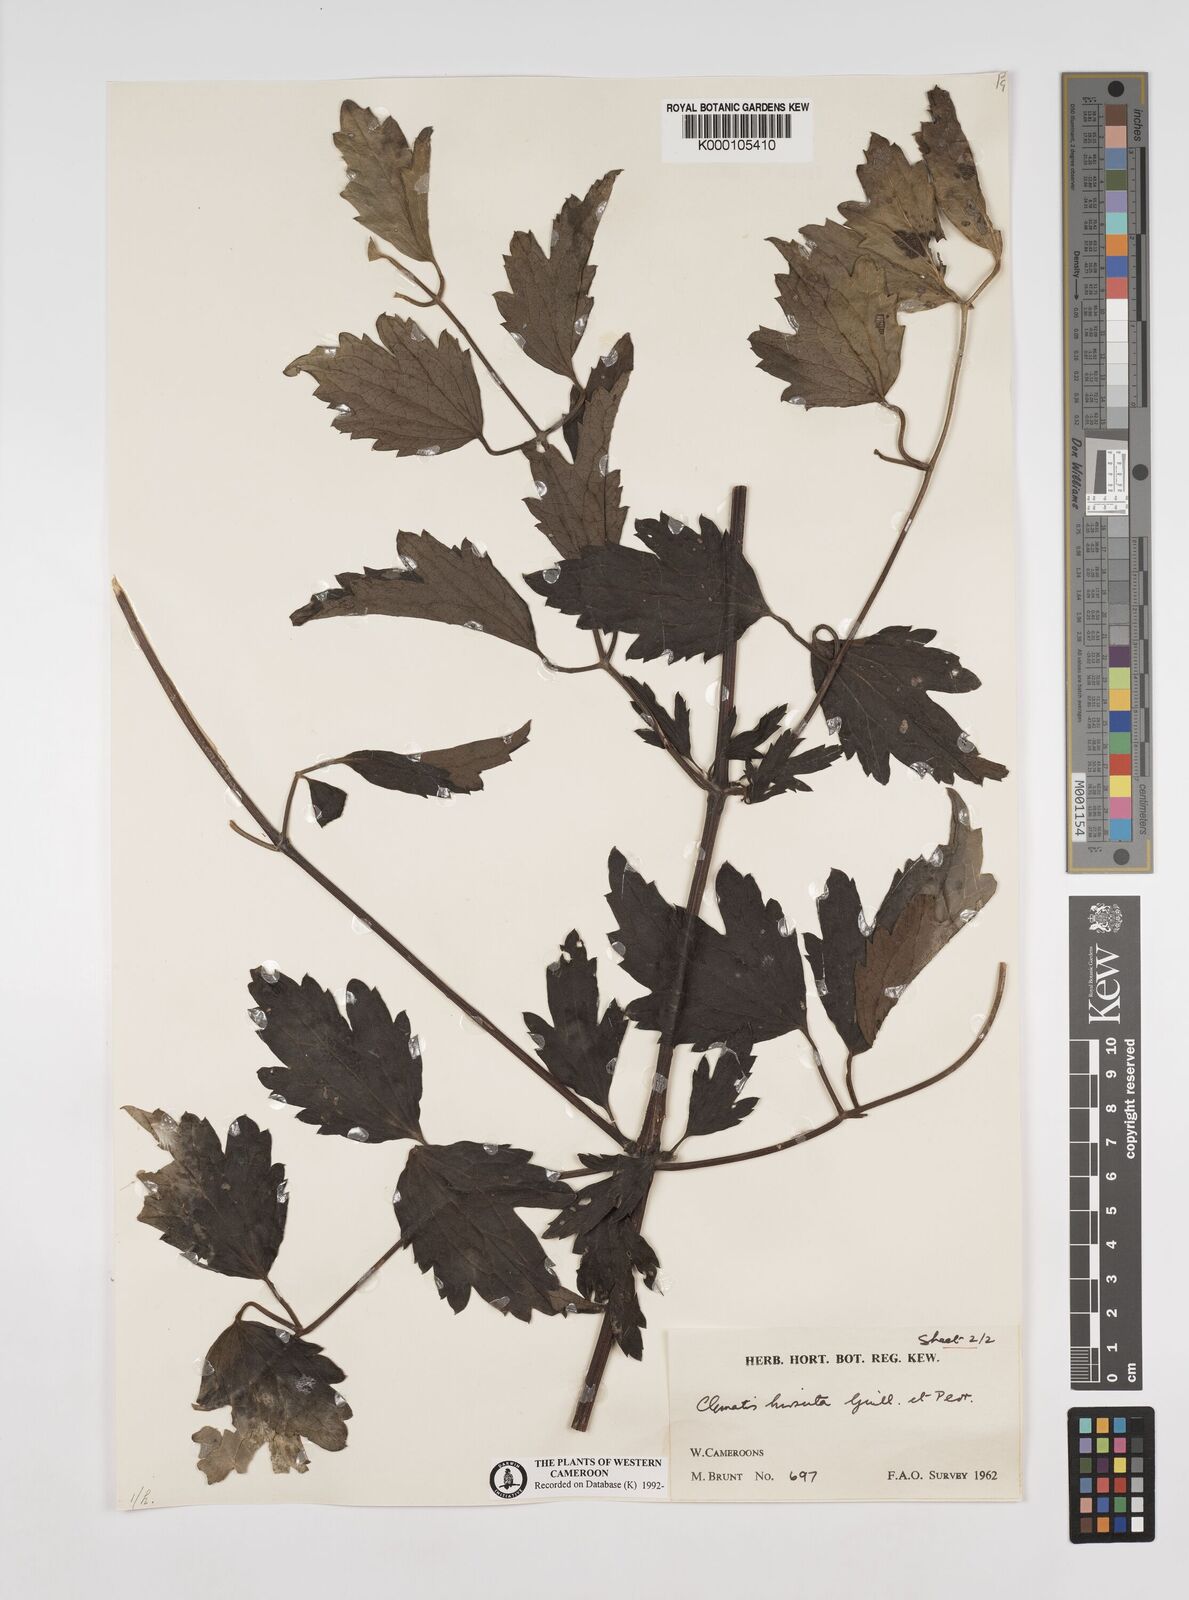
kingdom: Plantae
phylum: Tracheophyta
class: Magnoliopsida
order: Ranunculales
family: Ranunculaceae
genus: Clematis
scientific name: Clematis hirsuta
